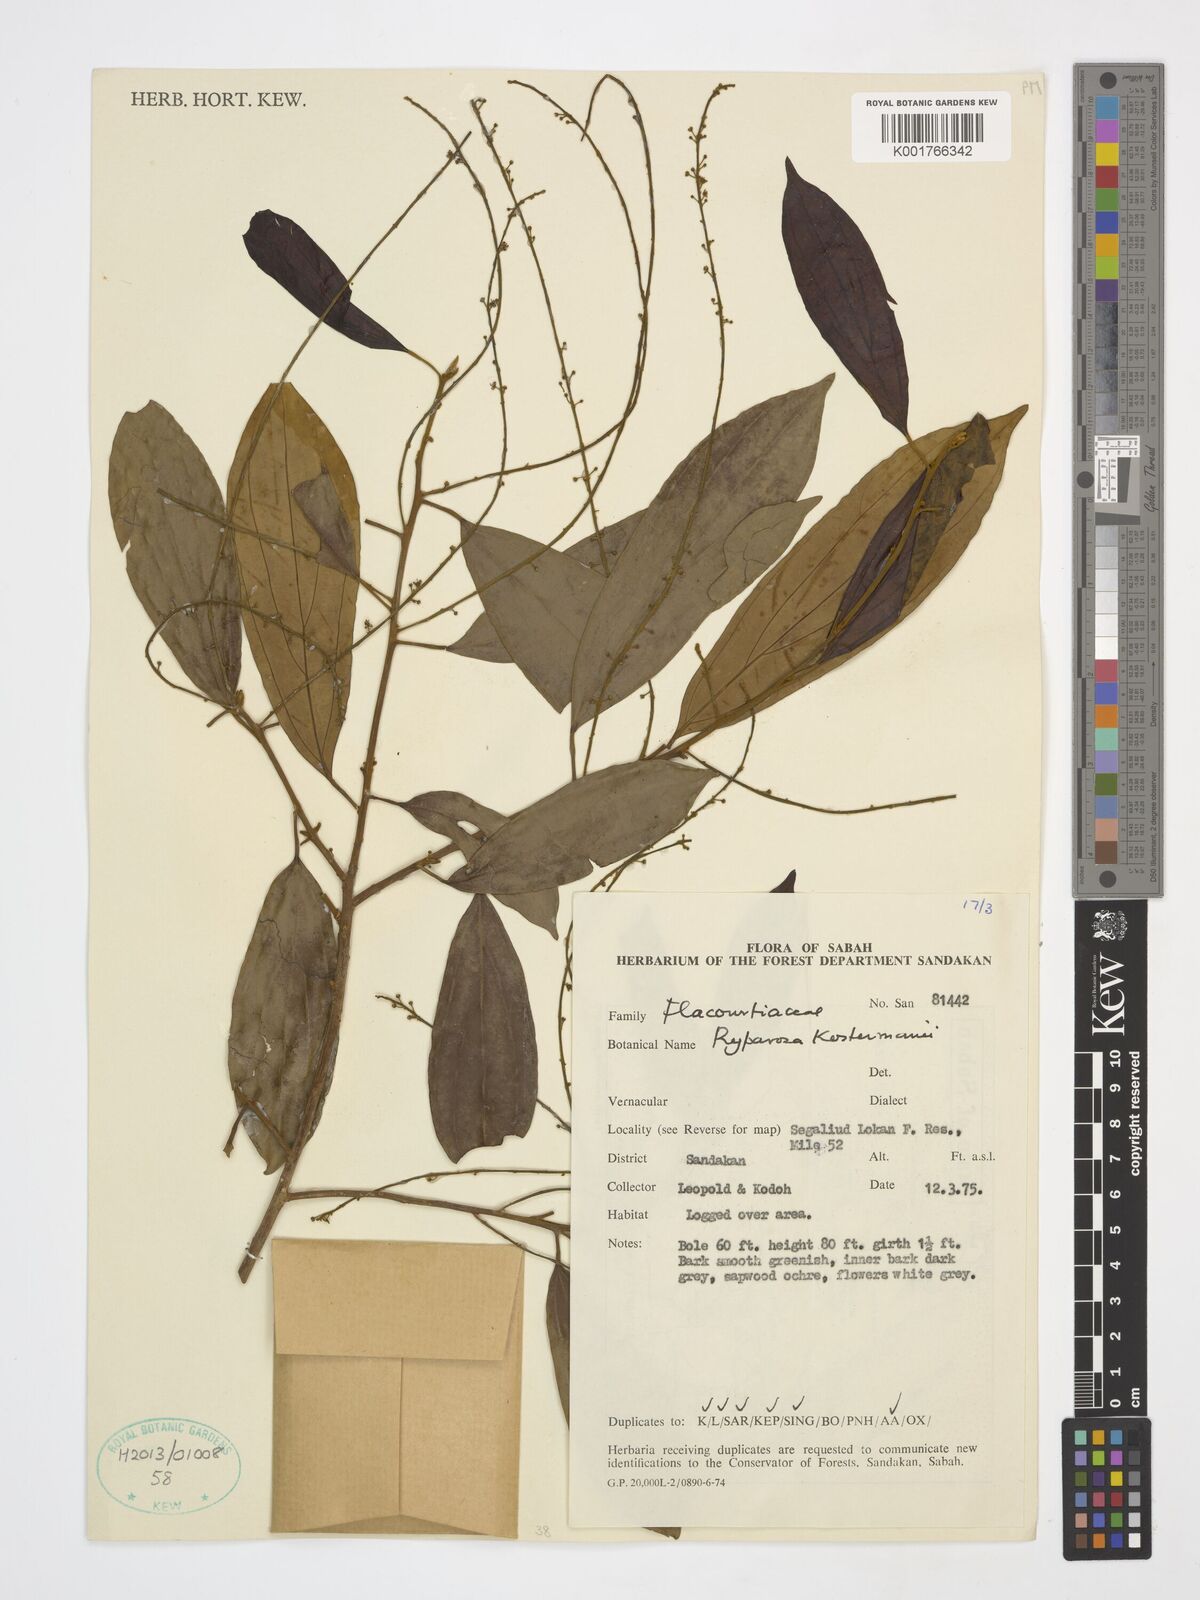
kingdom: Plantae
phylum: Tracheophyta
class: Magnoliopsida
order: Malpighiales
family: Achariaceae
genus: Ryparosa
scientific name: Ryparosa kostermansii
